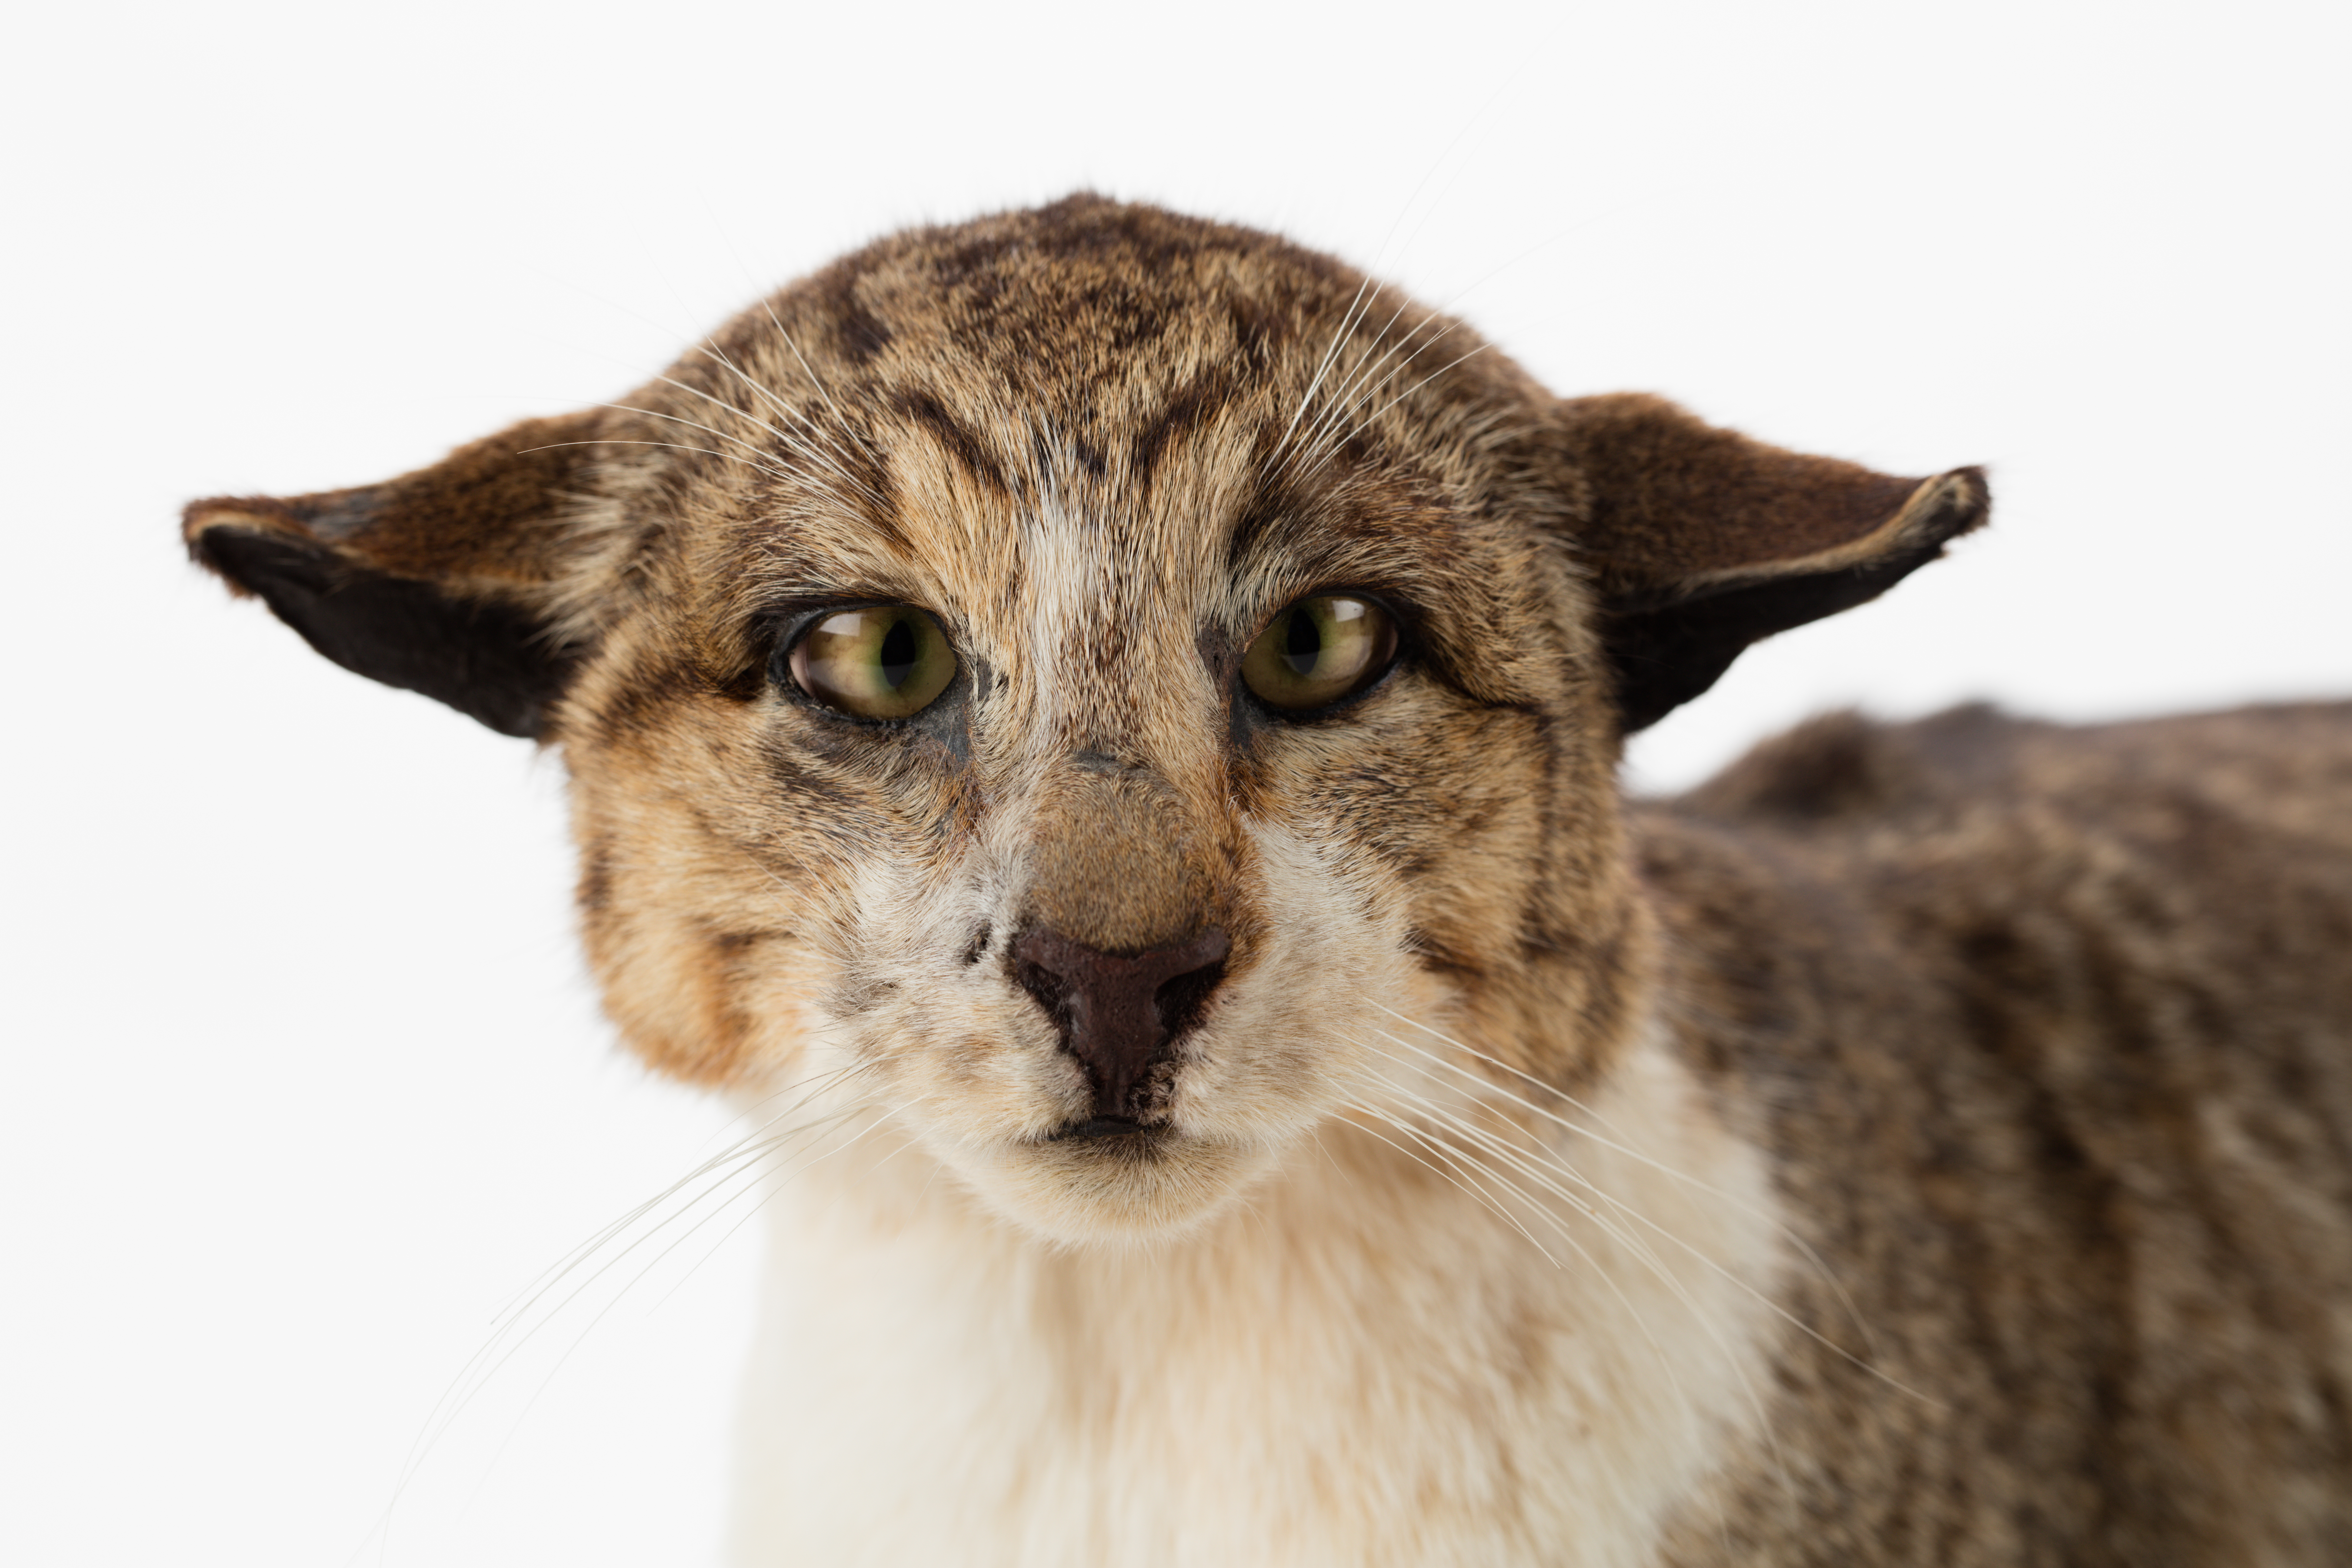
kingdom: Animalia
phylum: Chordata
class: Mammalia
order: Carnivora
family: Felidae
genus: Felis
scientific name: Felis catus
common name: Domestic cat
